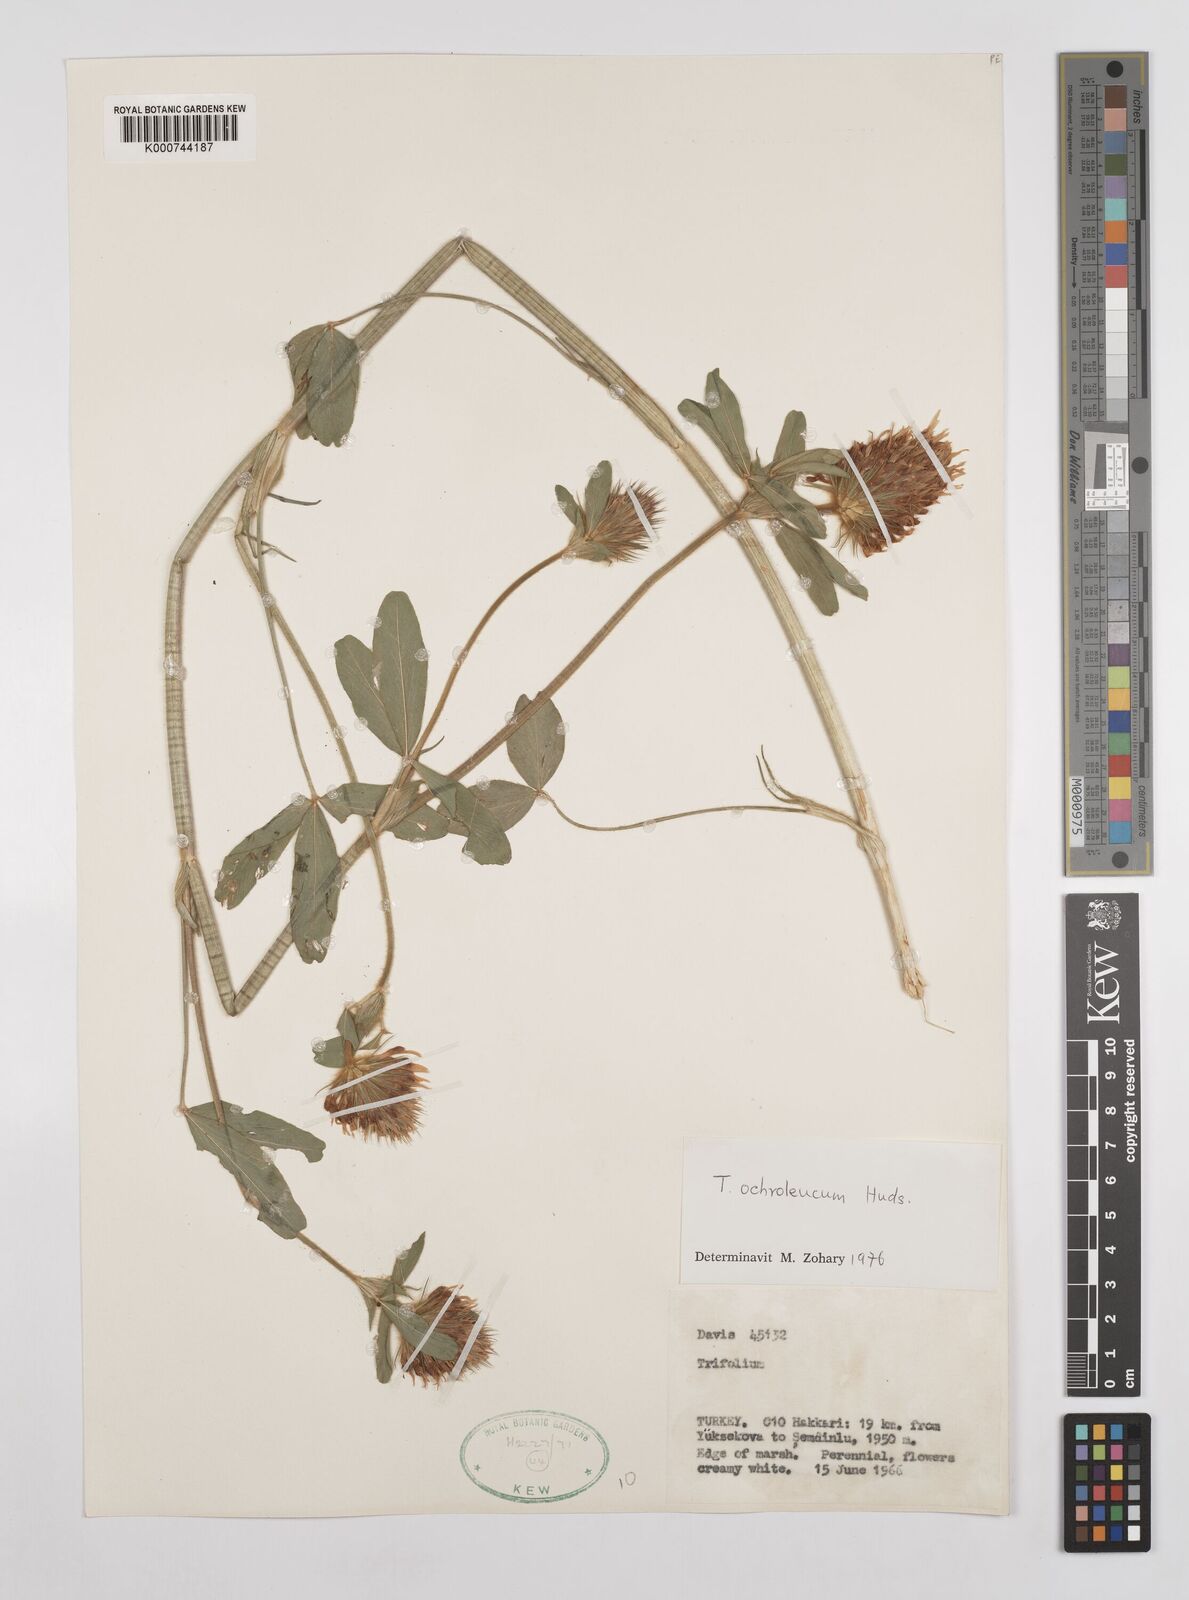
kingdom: Plantae
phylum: Tracheophyta
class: Magnoliopsida
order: Fabales
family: Fabaceae
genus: Trifolium
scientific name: Trifolium
